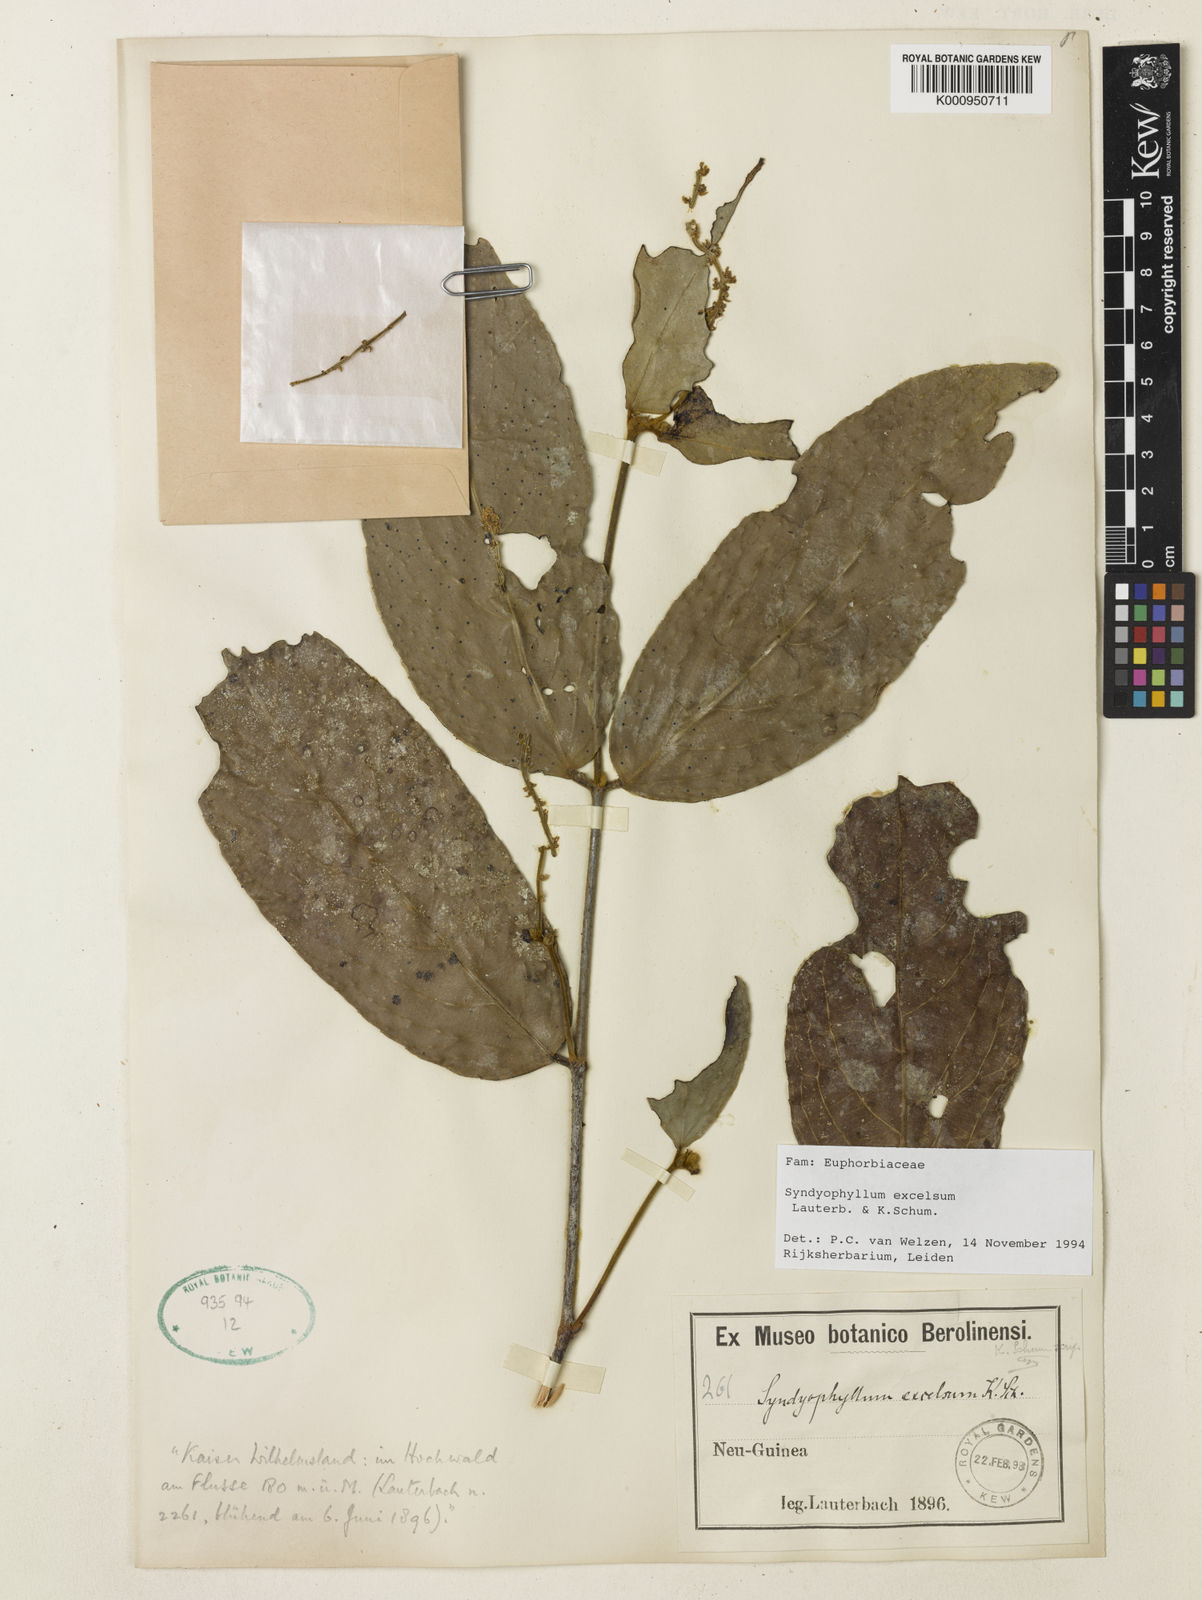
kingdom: Plantae
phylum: Tracheophyta
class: Magnoliopsida
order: Malpighiales
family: Euphorbiaceae
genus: Syndyophyllum
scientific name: Syndyophyllum excelsum
